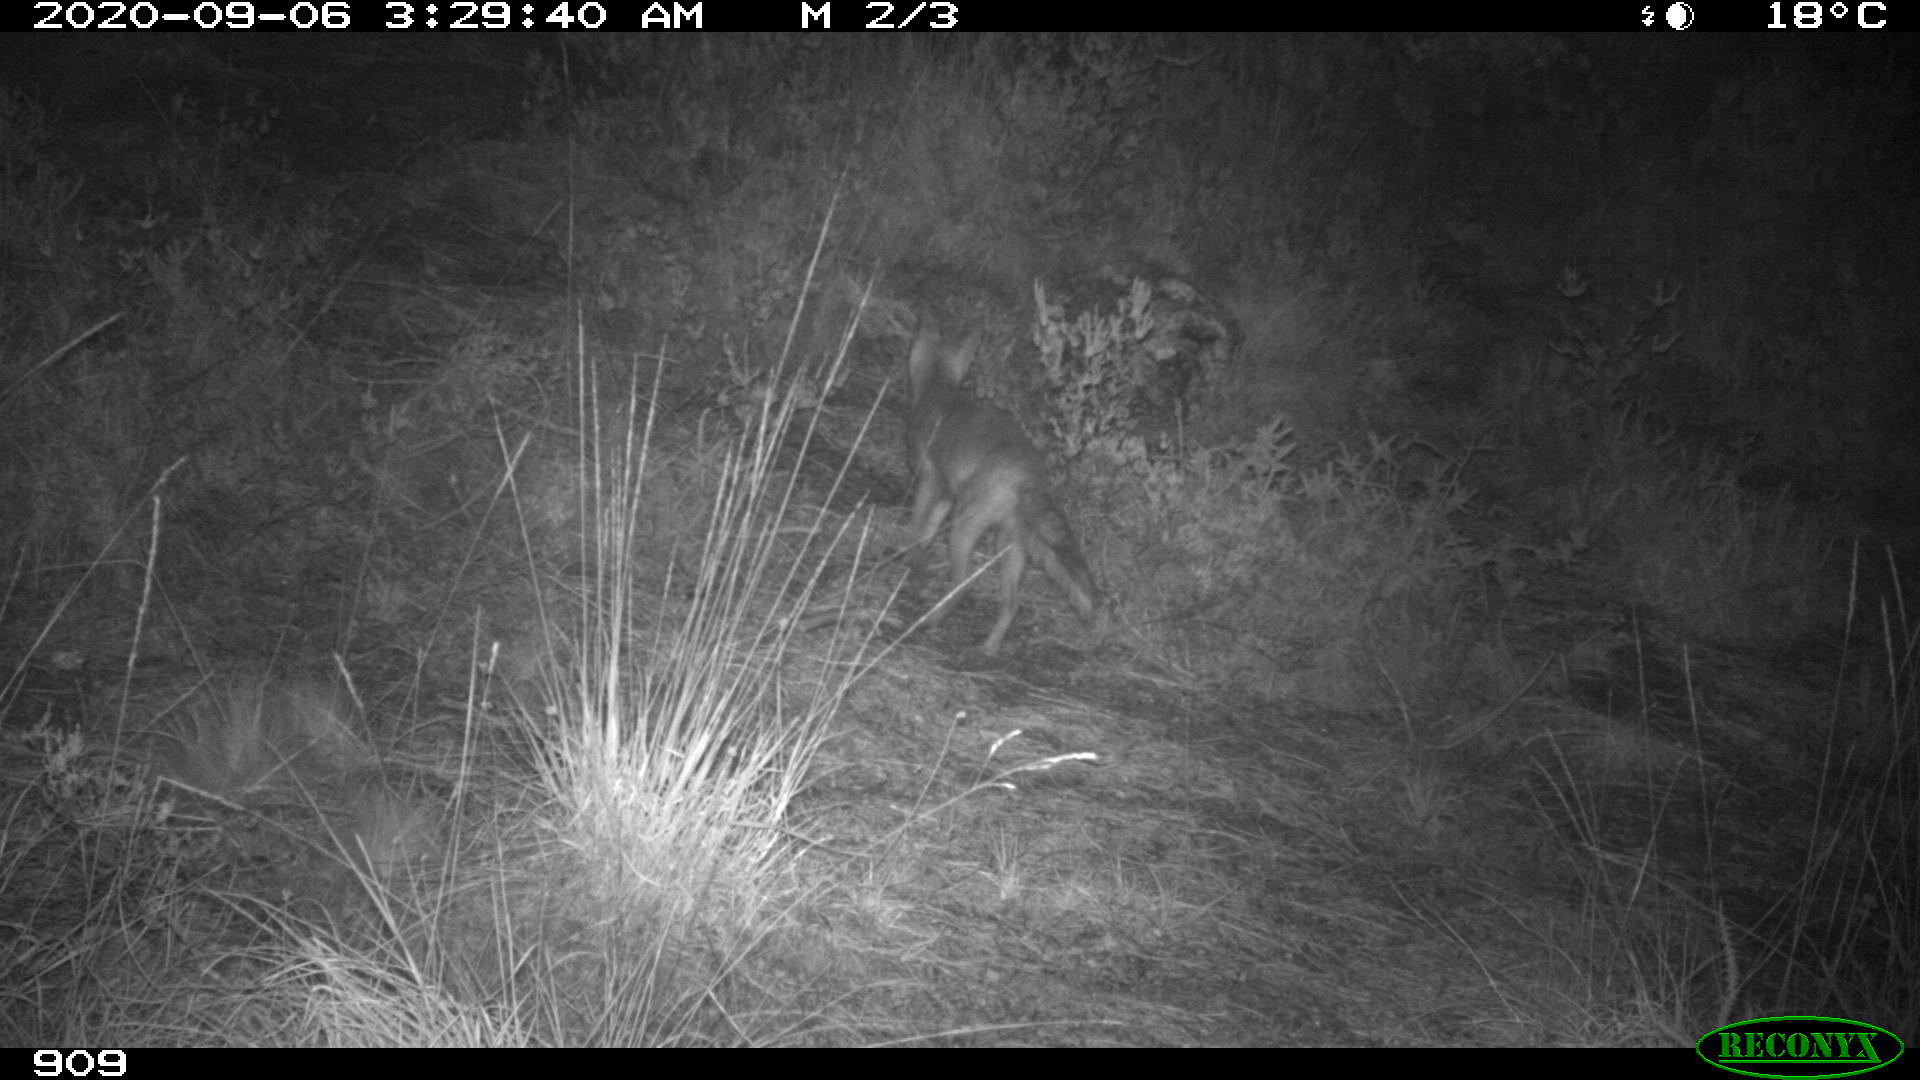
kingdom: Animalia
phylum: Chordata
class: Mammalia
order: Carnivora
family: Canidae
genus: Vulpes
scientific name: Vulpes vulpes
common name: Red fox
